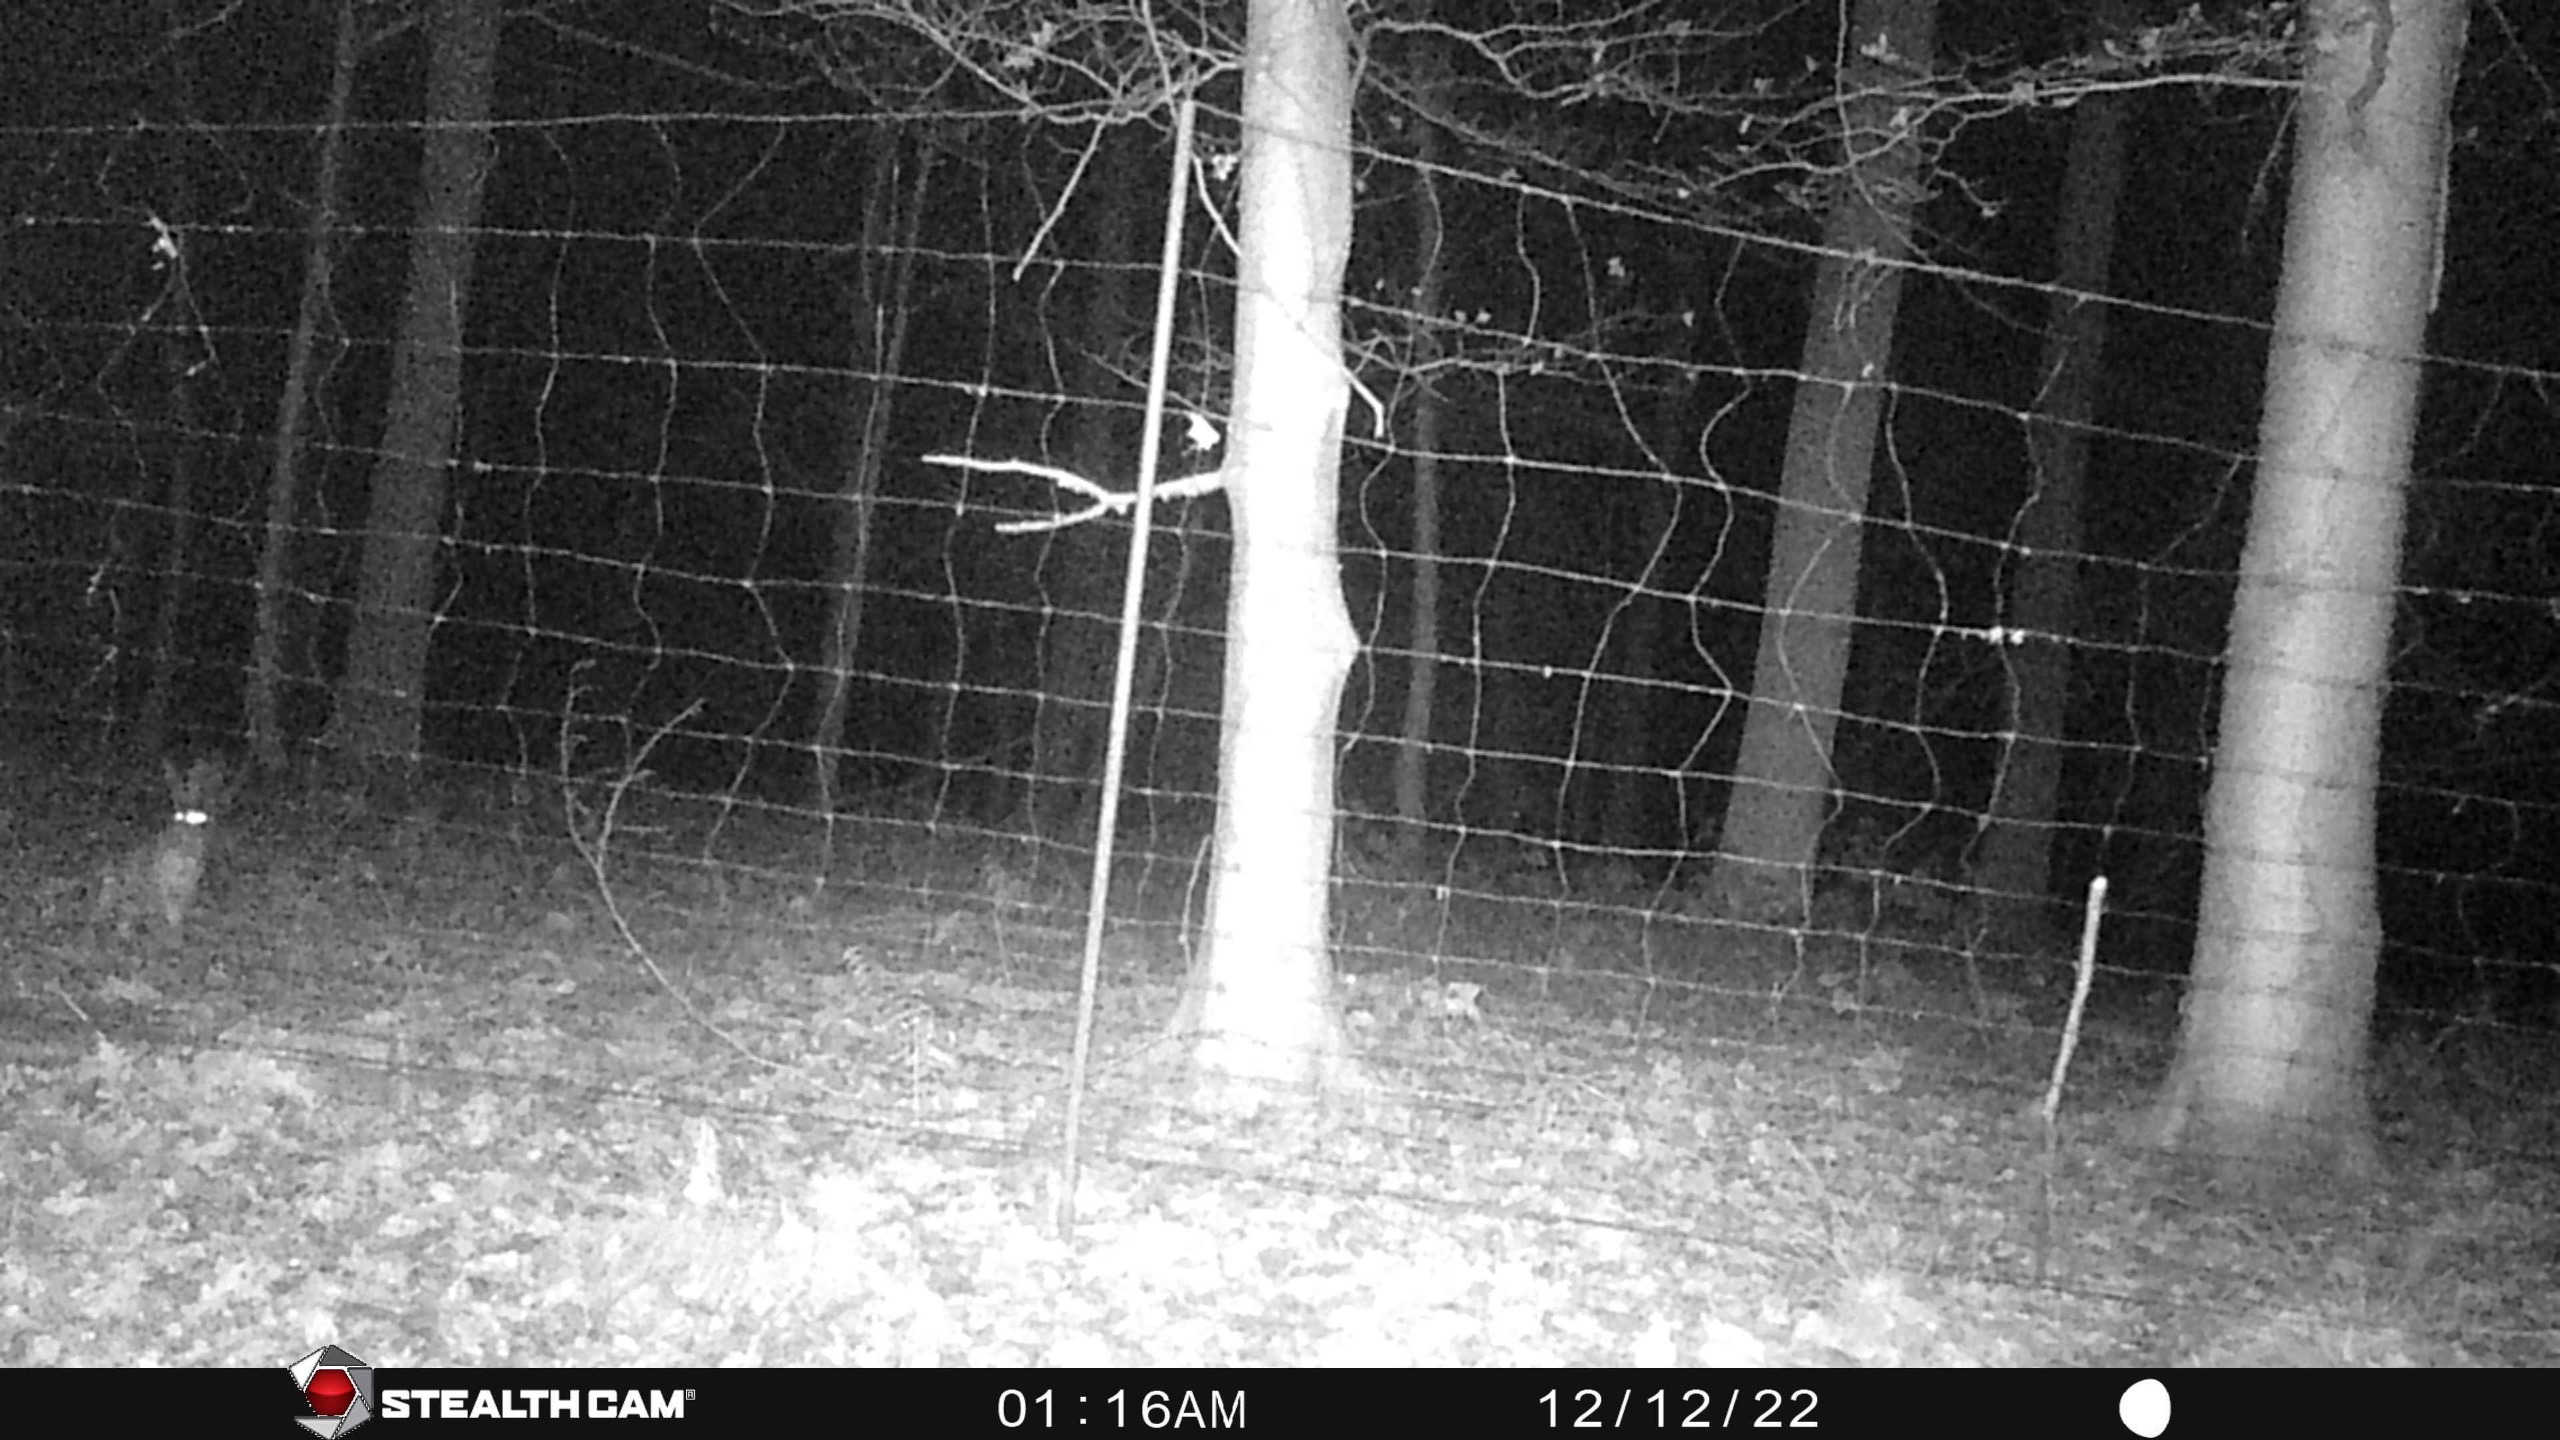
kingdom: Animalia
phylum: Chordata
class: Mammalia
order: Lagomorpha
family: Leporidae
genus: Lepus
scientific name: Lepus europaeus
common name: Hare
